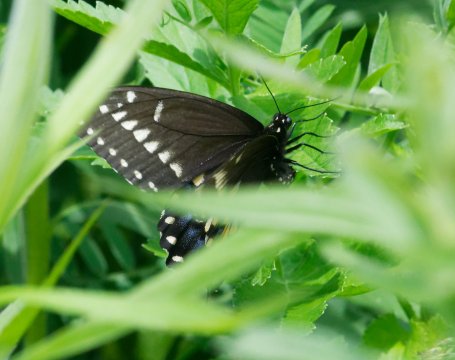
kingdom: Animalia
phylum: Arthropoda
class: Insecta
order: Lepidoptera
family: Papilionidae
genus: Papilio
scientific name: Papilio polyxenes
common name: Black Swallowtail
